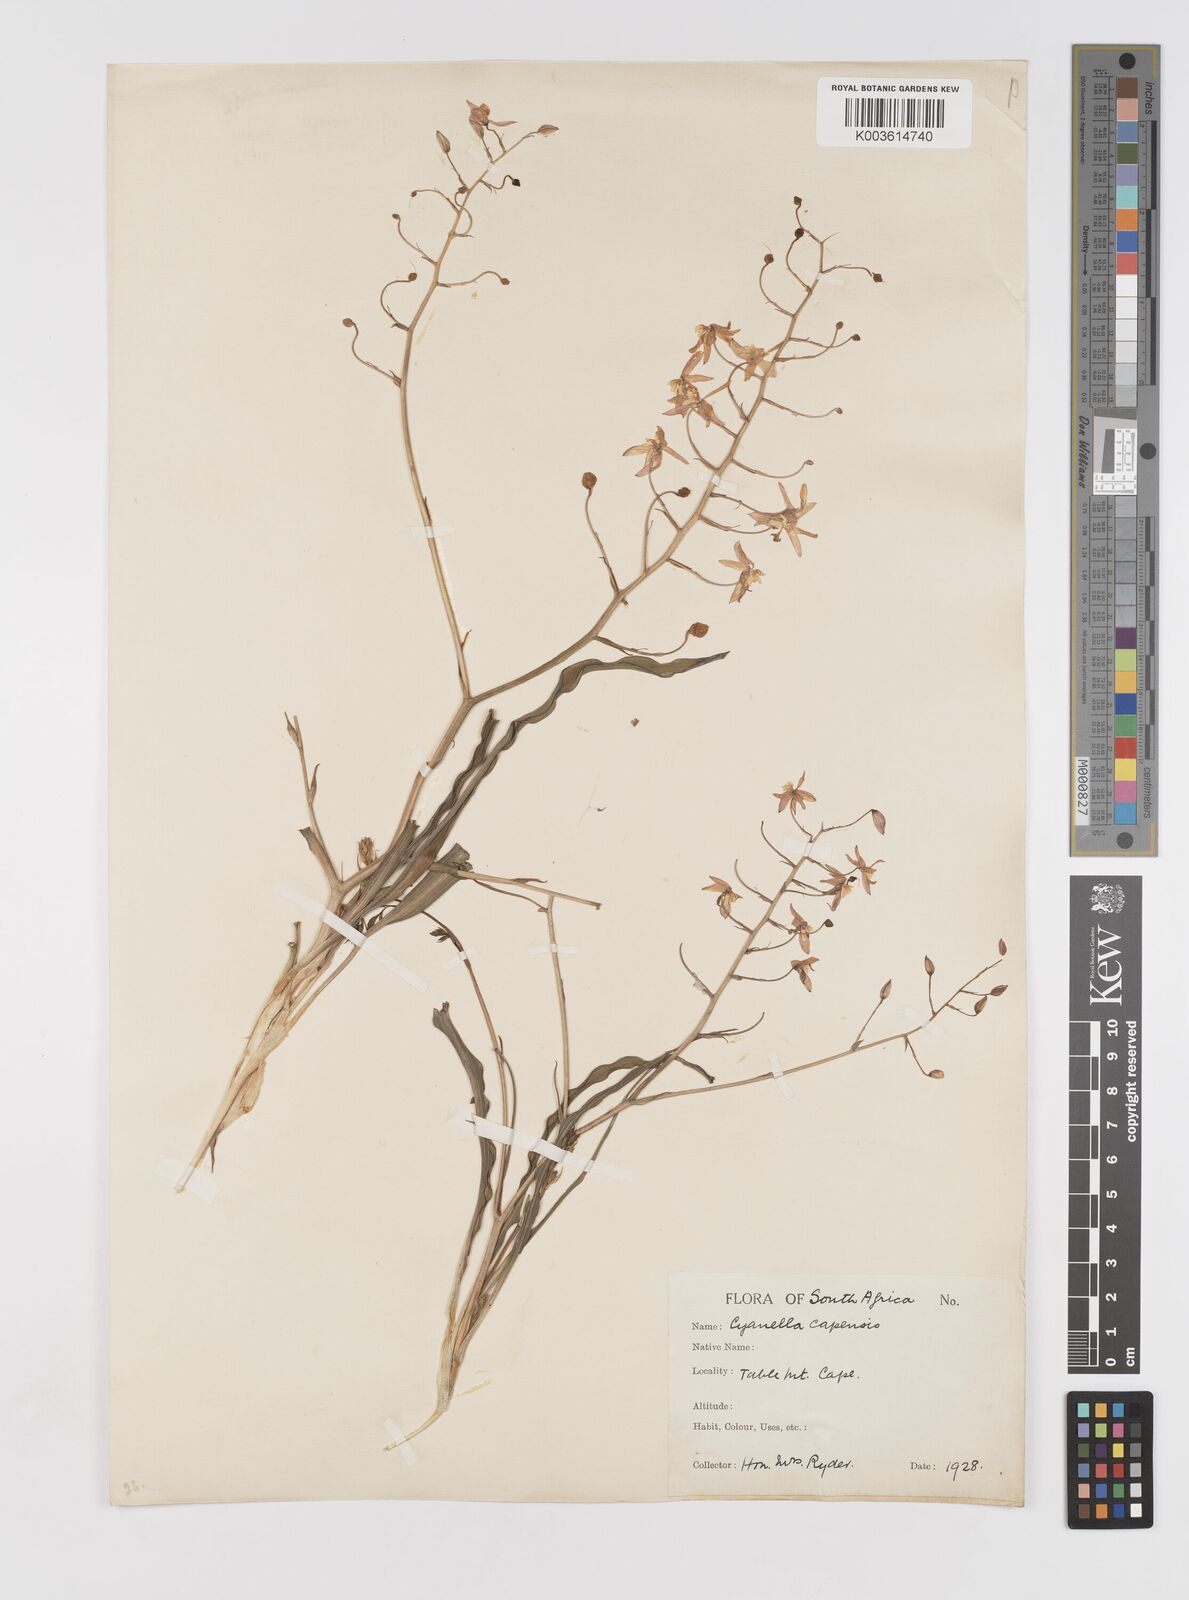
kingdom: Plantae
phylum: Tracheophyta
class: Liliopsida
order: Asparagales
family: Tecophilaeaceae
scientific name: Tecophilaeaceae
